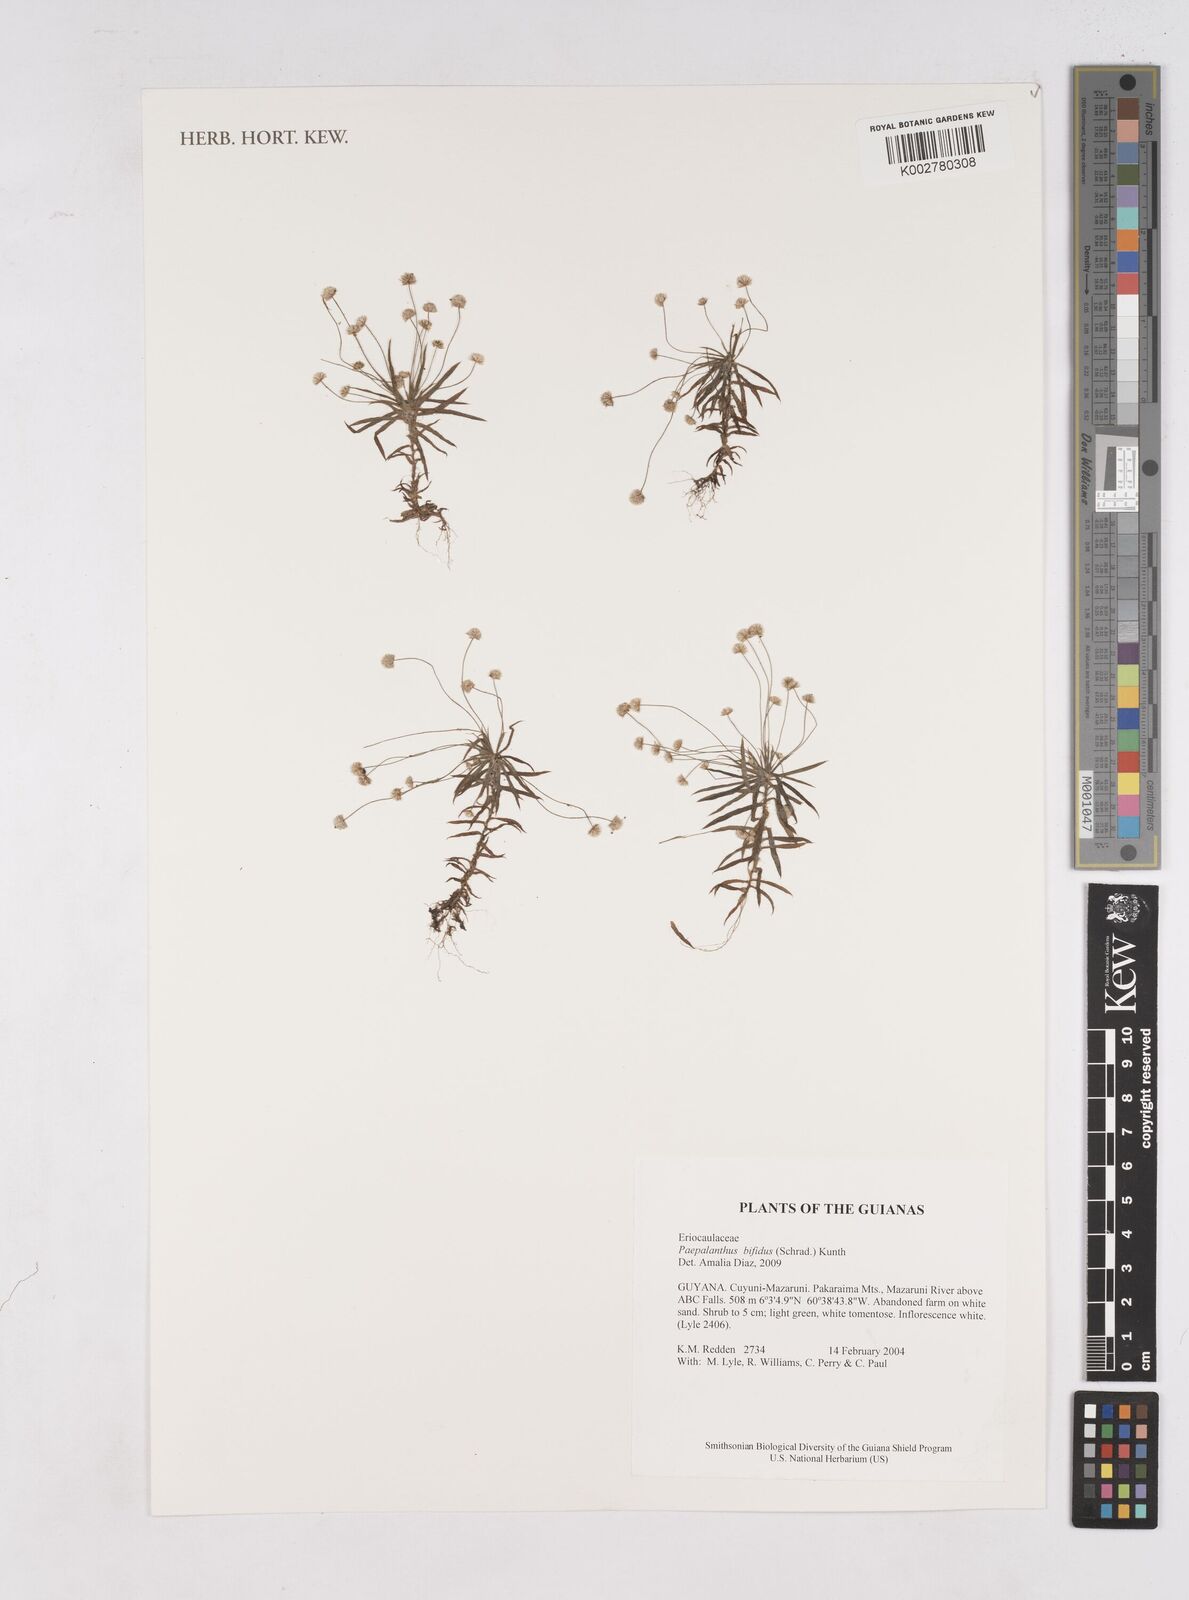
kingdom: Plantae
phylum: Tracheophyta
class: Liliopsida
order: Poales
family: Eriocaulaceae
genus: Paepalanthus
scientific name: Paepalanthus bifidus
